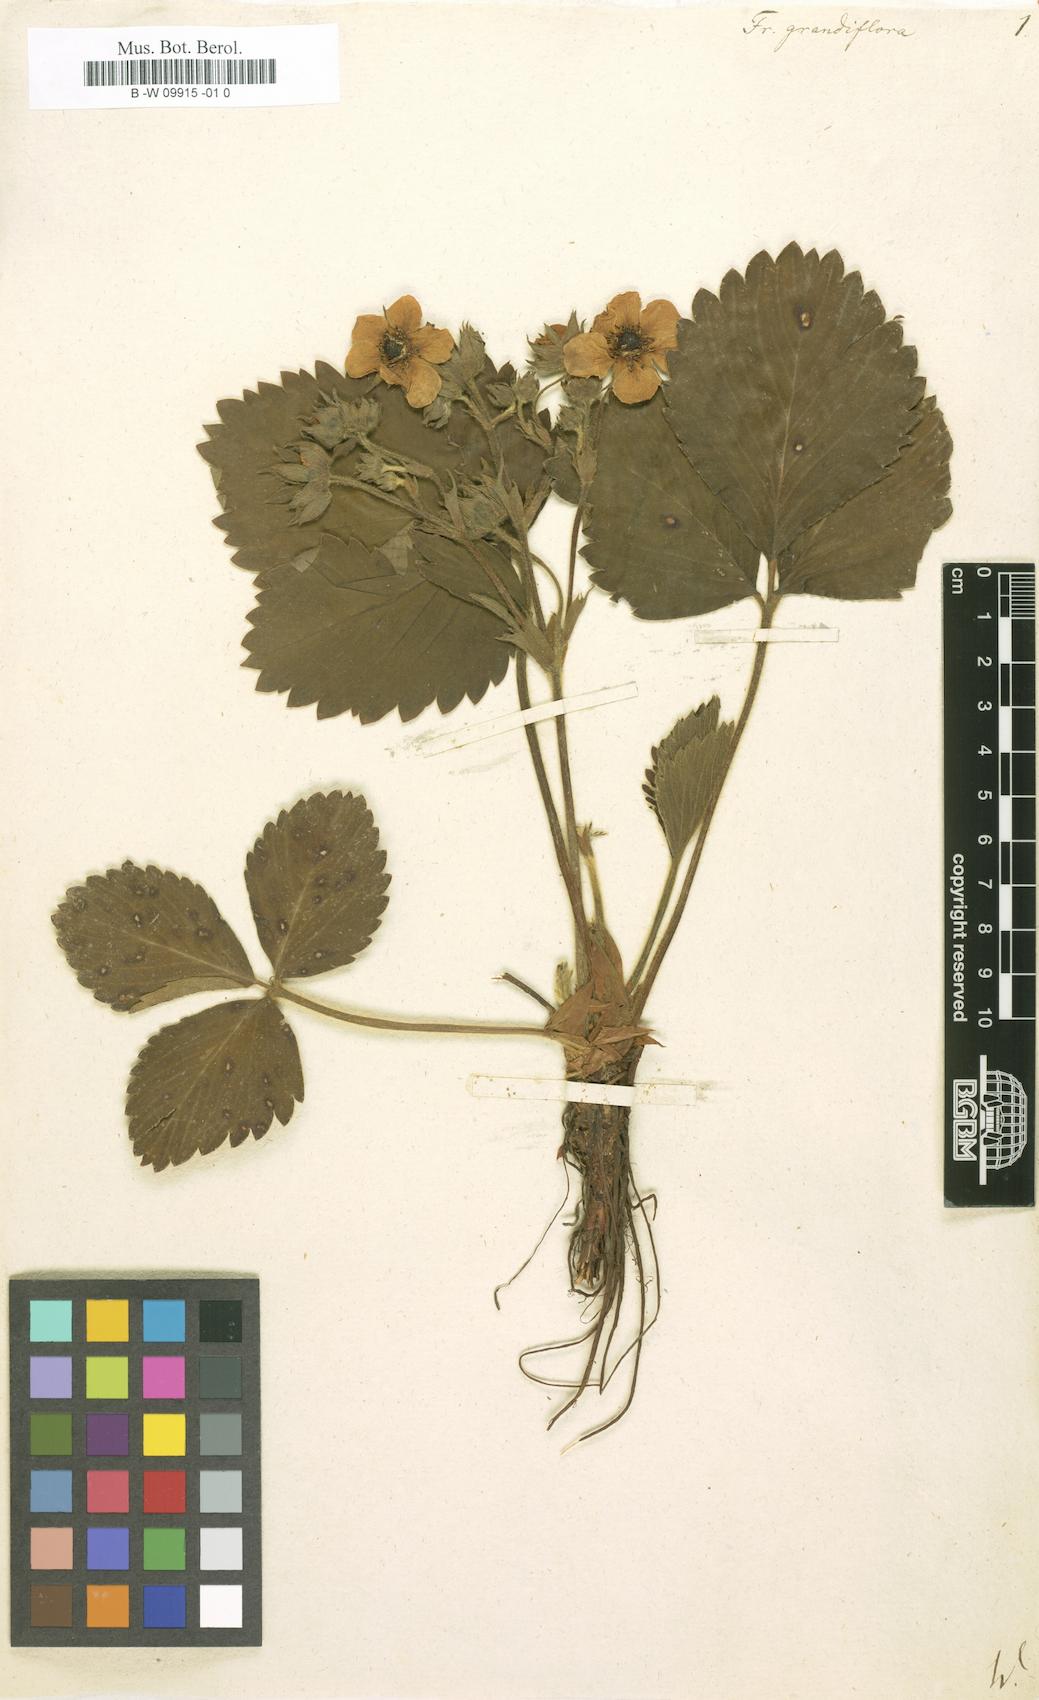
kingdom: Plantae
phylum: Tracheophyta
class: Magnoliopsida
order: Rosales
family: Rosaceae
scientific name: Rosaceae
